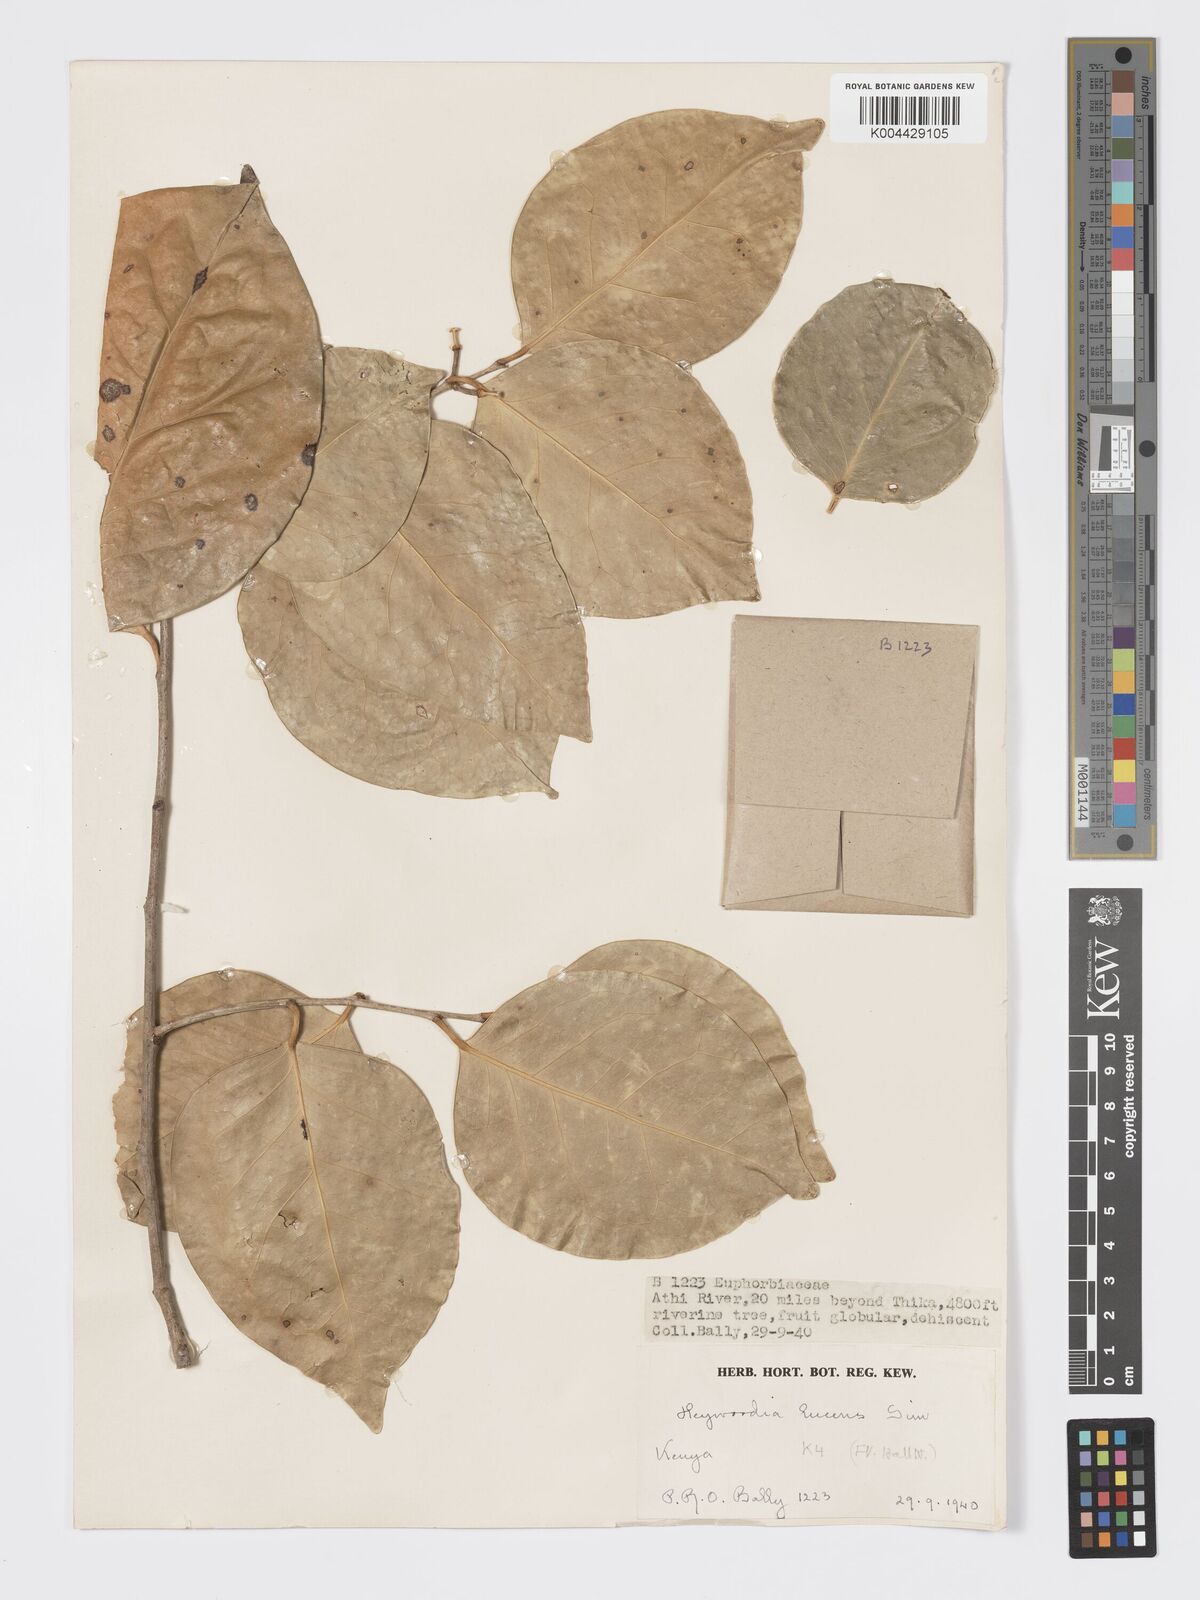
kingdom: Plantae
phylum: Tracheophyta
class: Magnoliopsida
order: Malpighiales
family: Phyllanthaceae
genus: Heywoodia
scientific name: Heywoodia lucens
